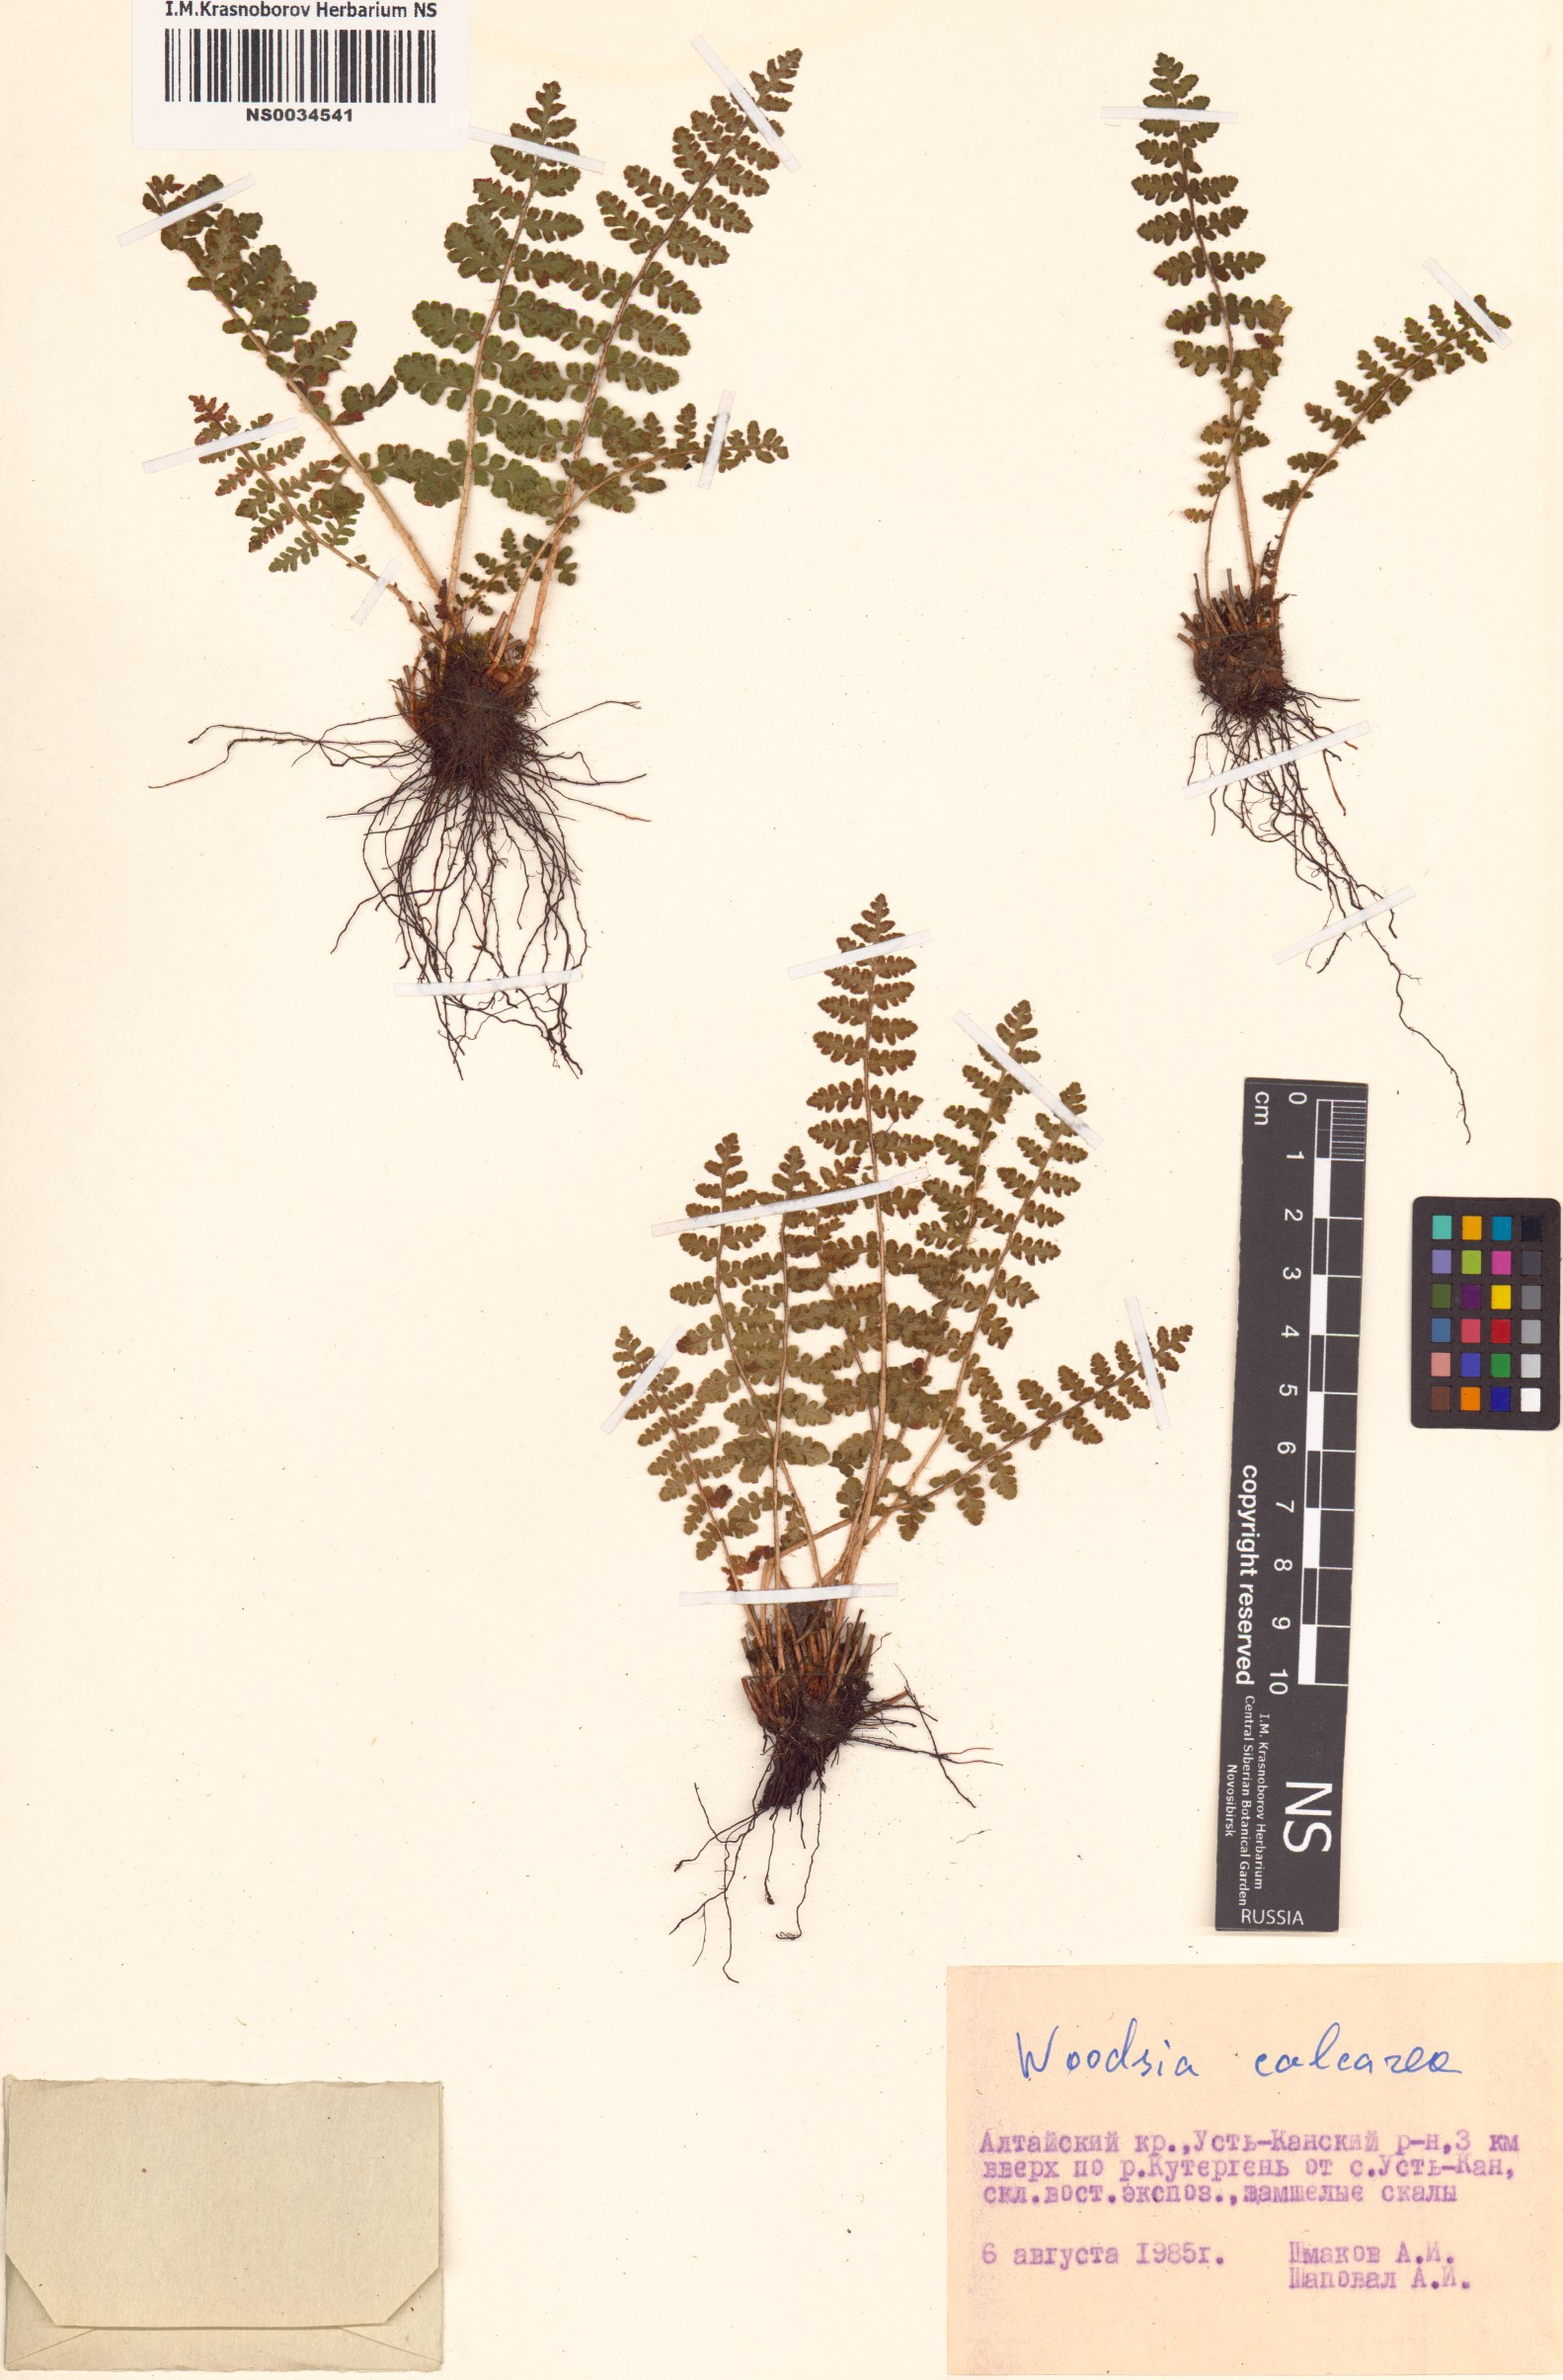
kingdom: Plantae
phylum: Tracheophyta
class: Polypodiopsida
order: Polypodiales
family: Woodsiaceae
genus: Woodsia
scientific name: Woodsia calcarea
